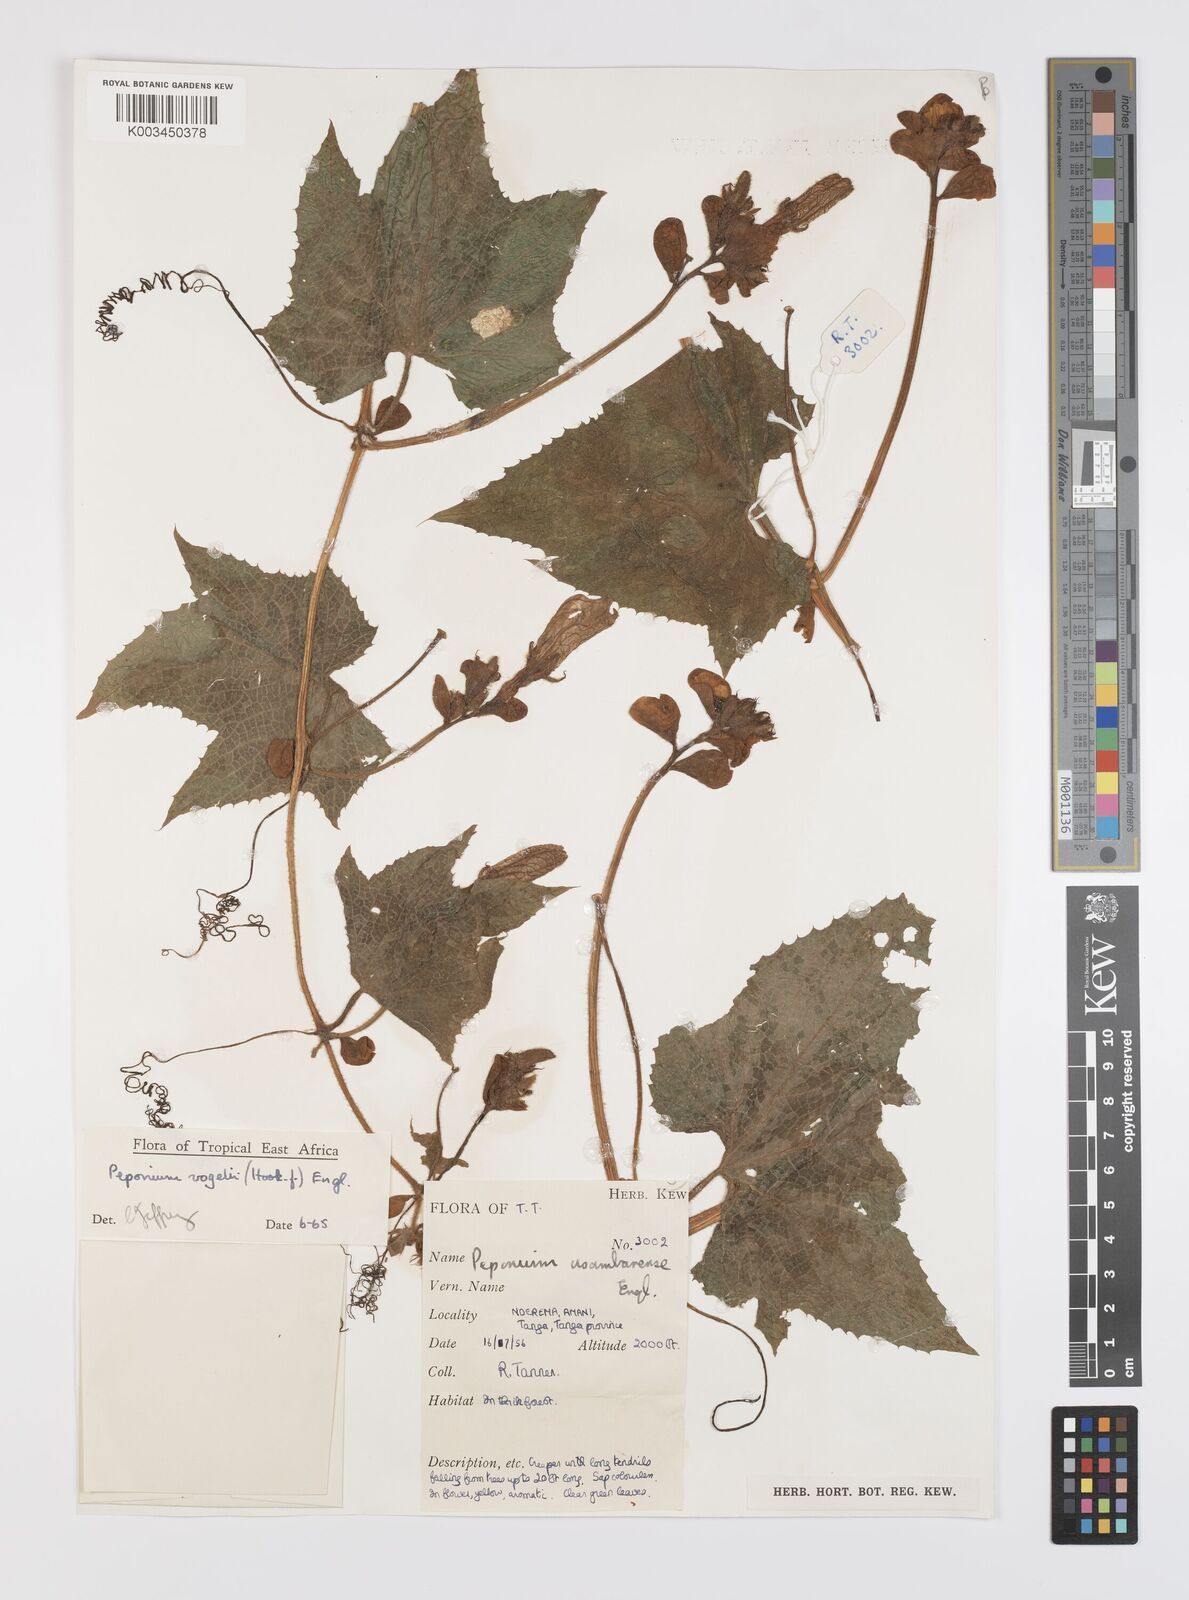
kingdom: Plantae
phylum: Tracheophyta
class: Magnoliopsida
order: Cucurbitales
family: Cucurbitaceae
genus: Peponium
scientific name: Peponium vogelii
